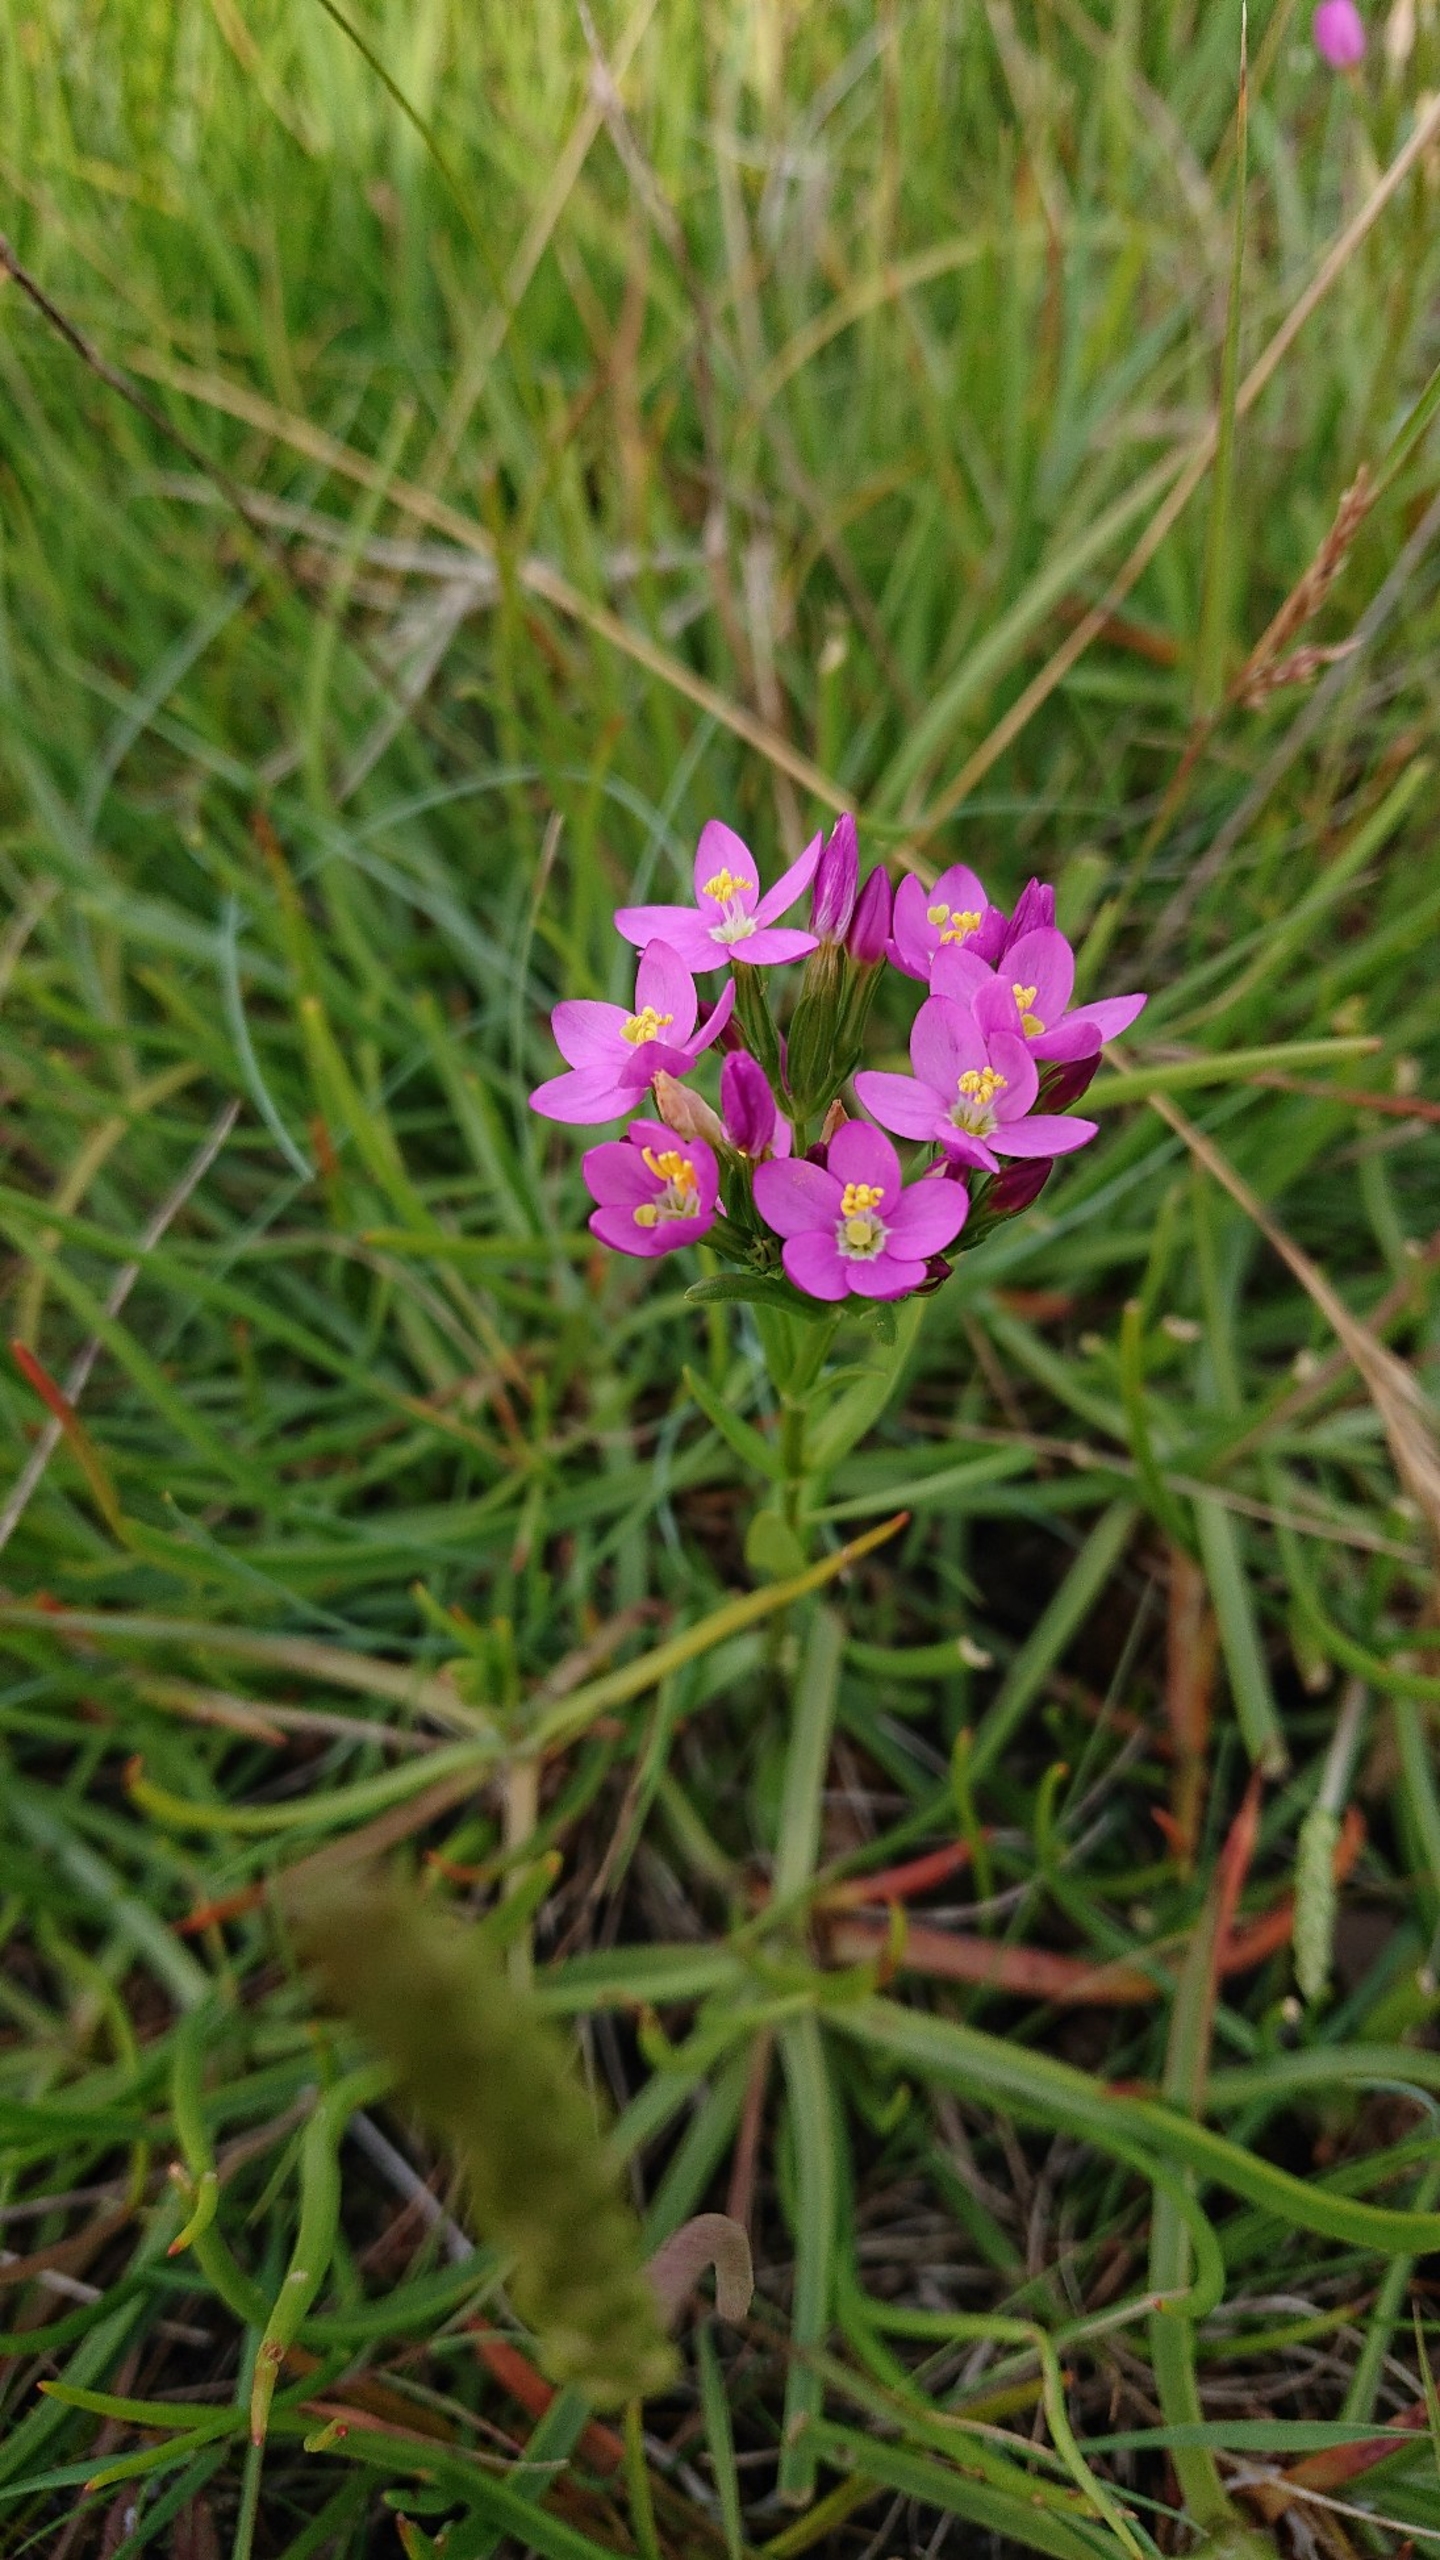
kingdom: Plantae
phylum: Tracheophyta
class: Magnoliopsida
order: Gentianales
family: Gentianaceae
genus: Centaurium
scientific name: Centaurium littorale
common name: Strand-tusindgylden
